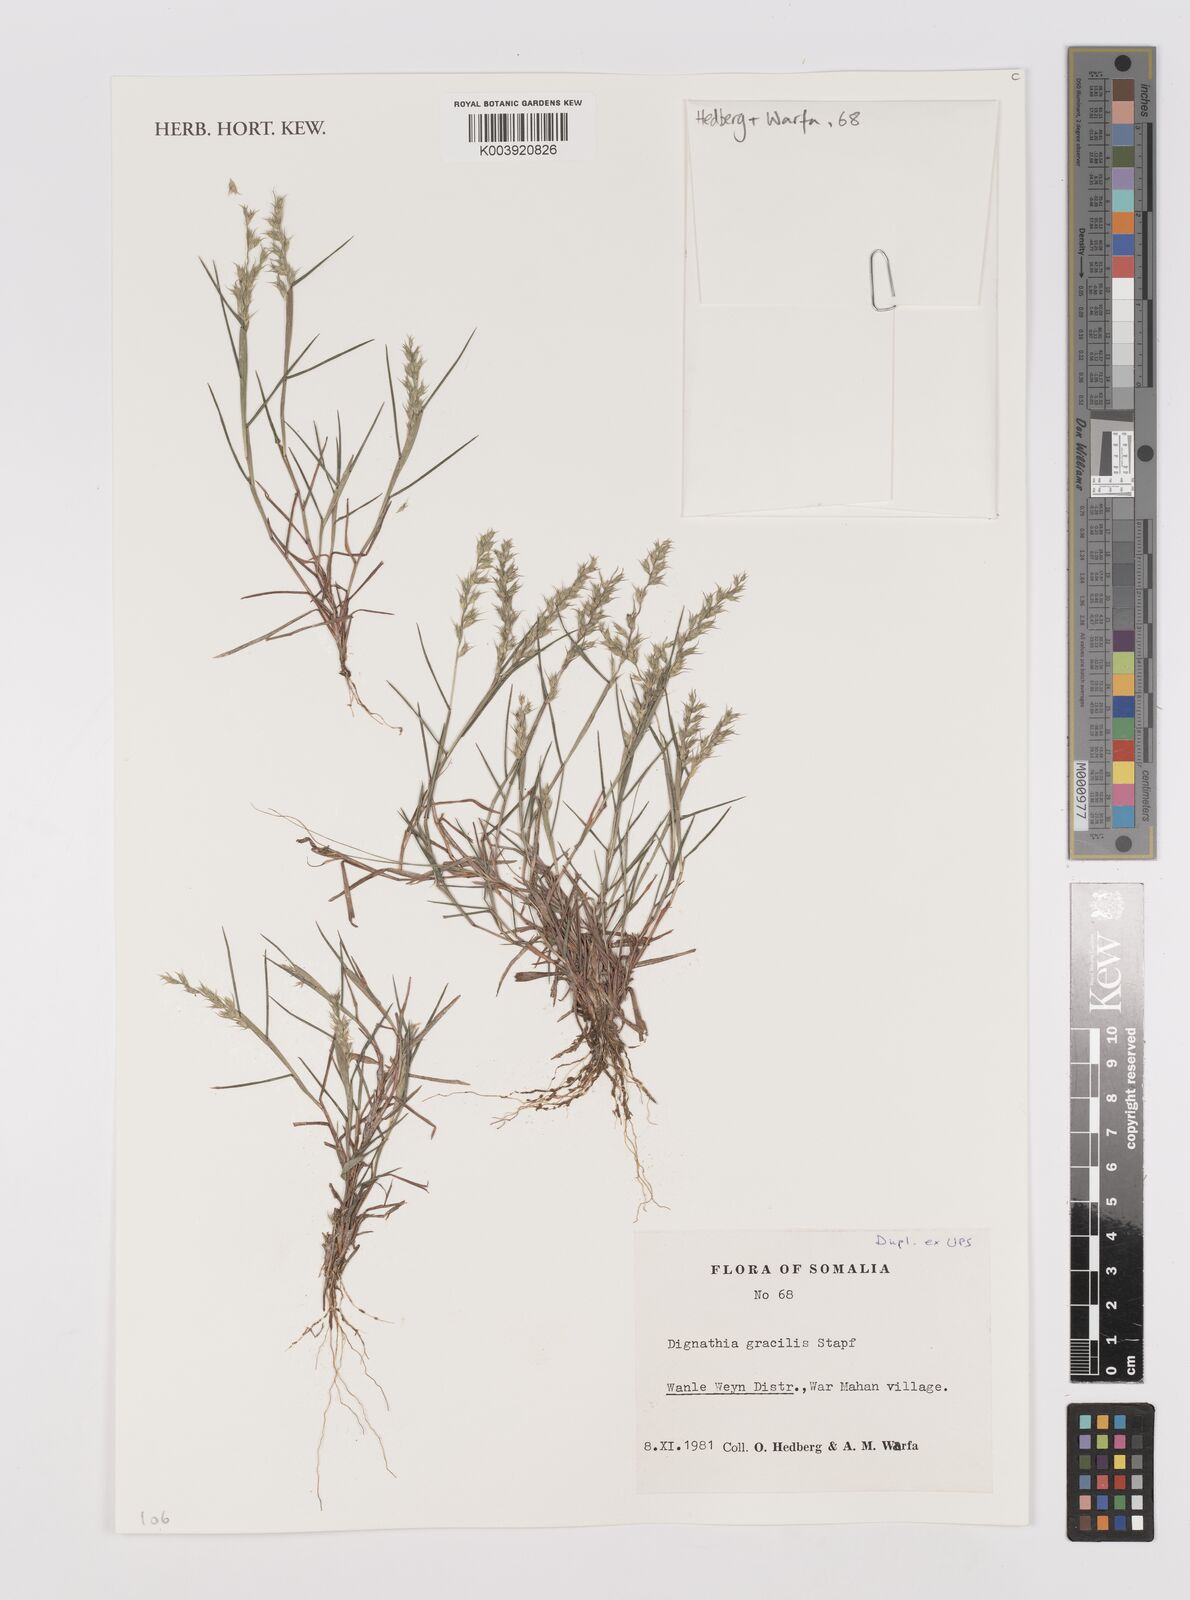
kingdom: Plantae
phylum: Tracheophyta
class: Liliopsida
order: Poales
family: Poaceae
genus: Dignathia
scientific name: Dignathia gracilis
